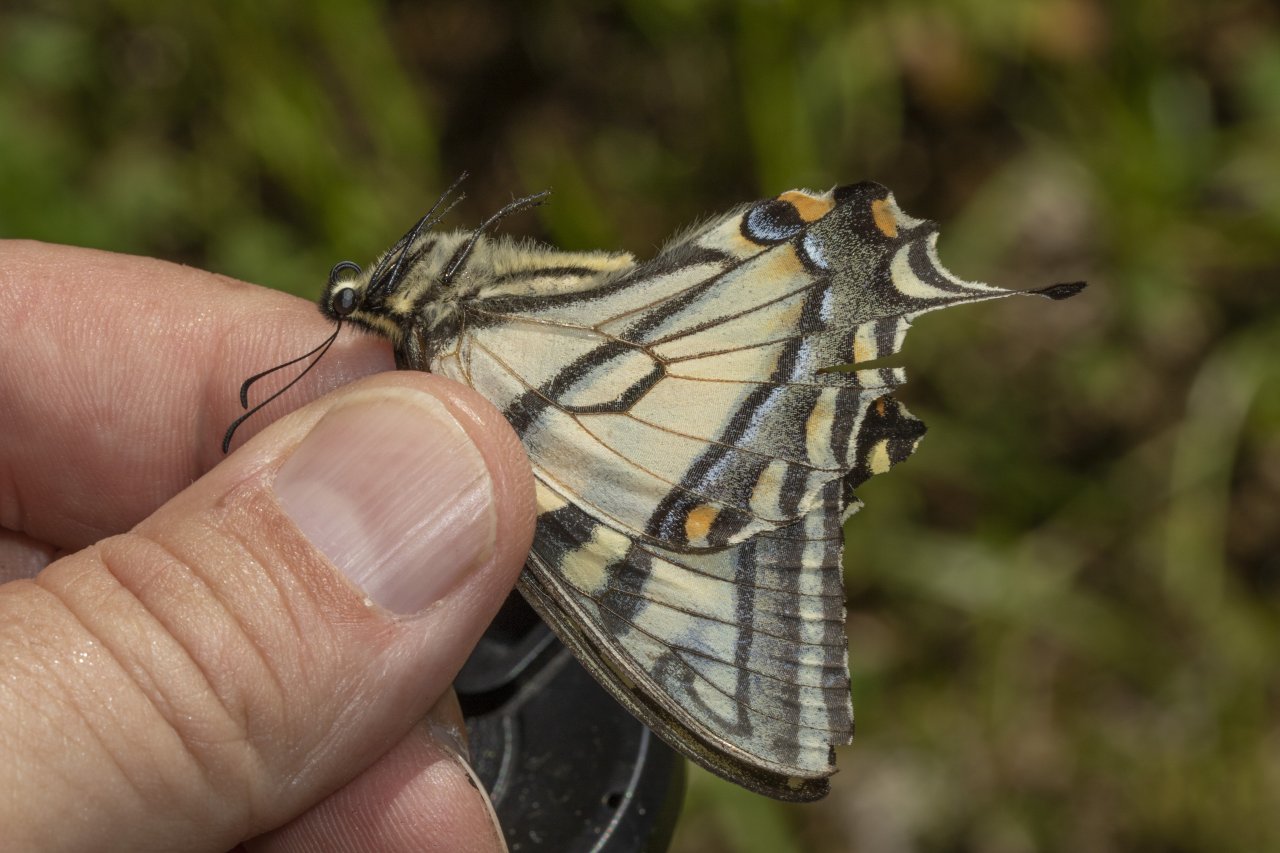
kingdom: Animalia
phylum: Arthropoda
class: Insecta
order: Lepidoptera
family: Papilionidae
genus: Pterourus
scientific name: Pterourus canadensis
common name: Canadian Tiger Swallowtail
